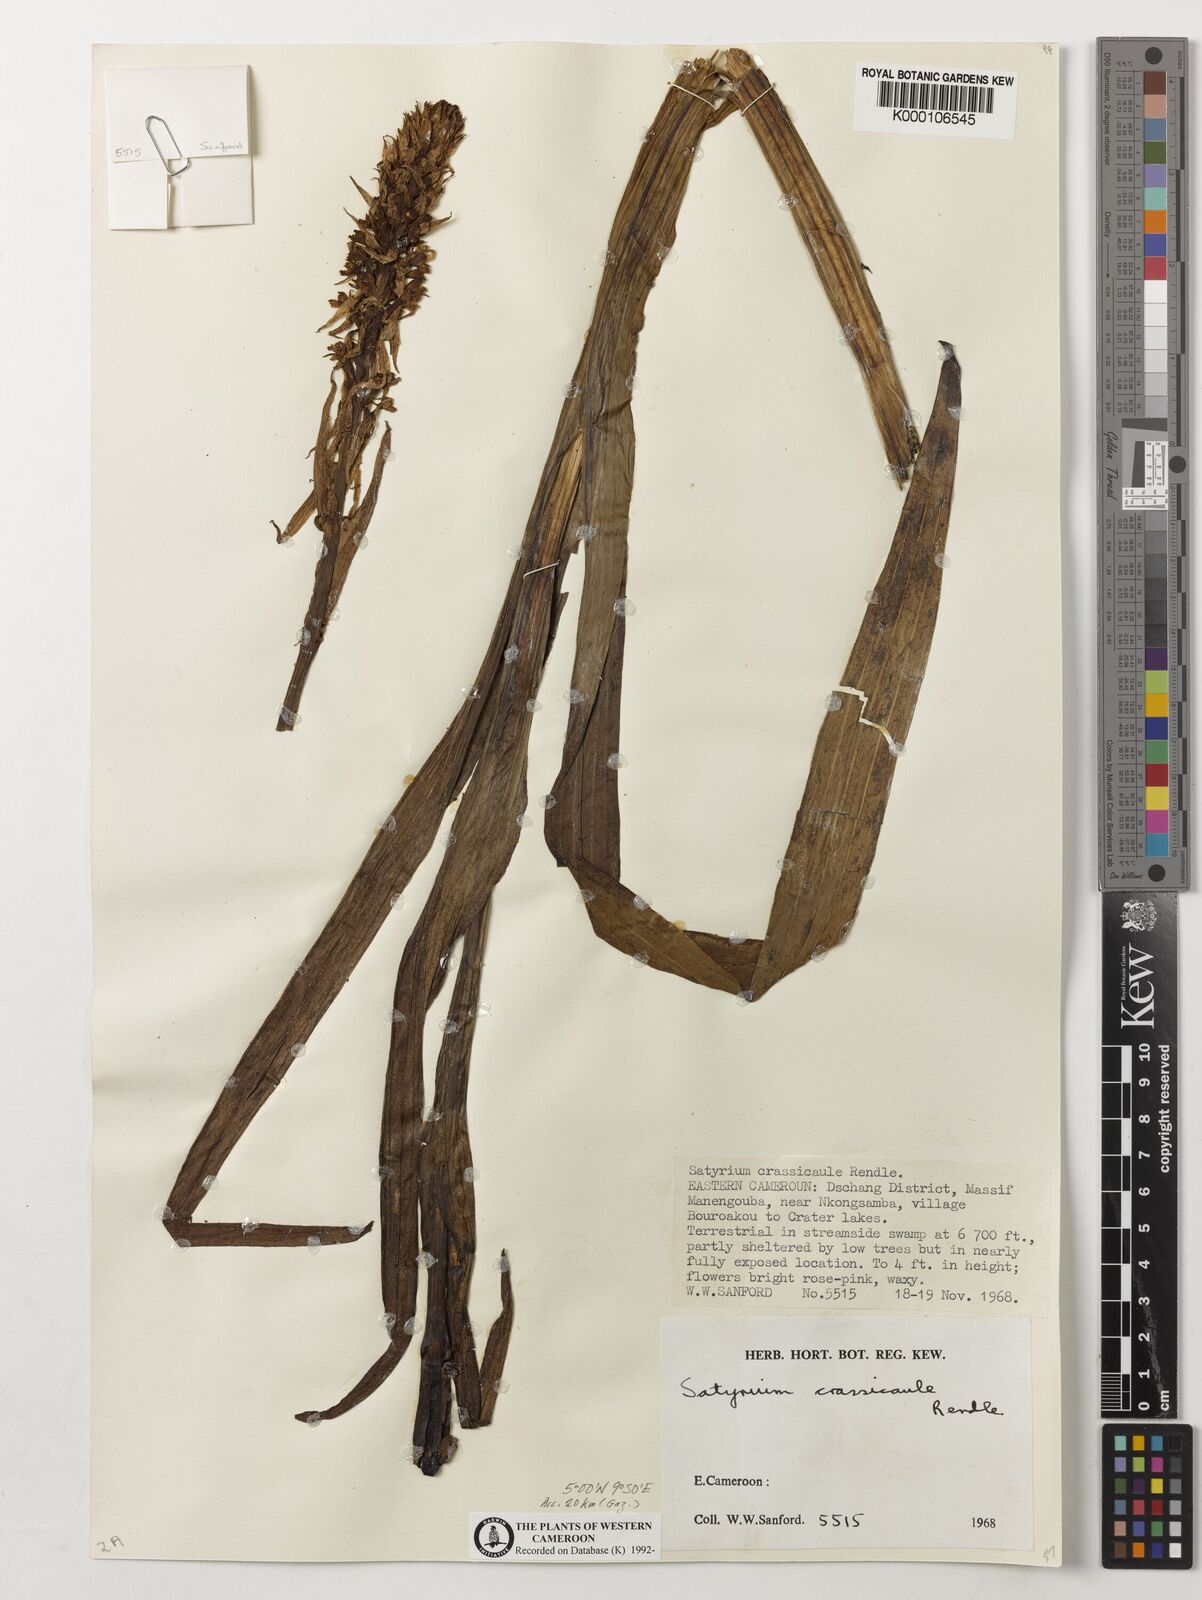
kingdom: Plantae
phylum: Tracheophyta
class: Liliopsida
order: Asparagales
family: Orchidaceae
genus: Satyrium
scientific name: Satyrium crassicaule
